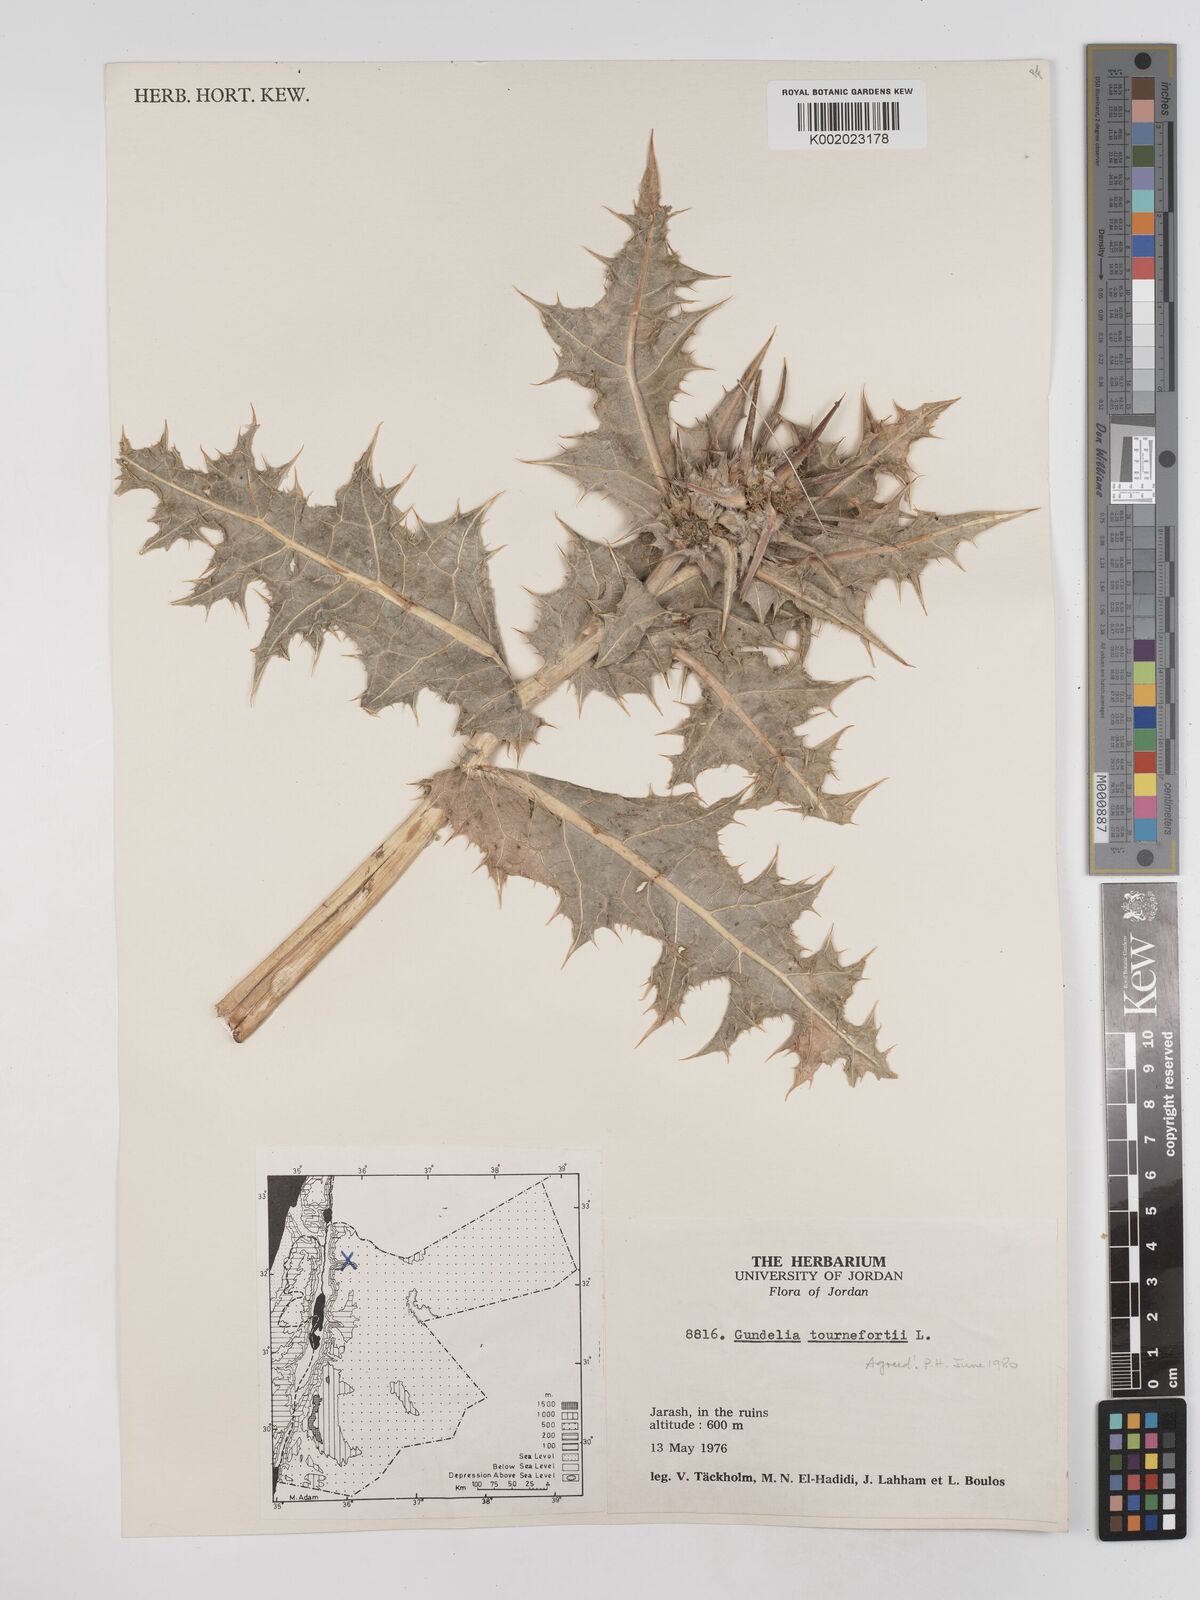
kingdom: Plantae
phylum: Tracheophyta
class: Magnoliopsida
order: Asterales
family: Asteraceae
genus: Gundelia
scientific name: Gundelia tournefortii
